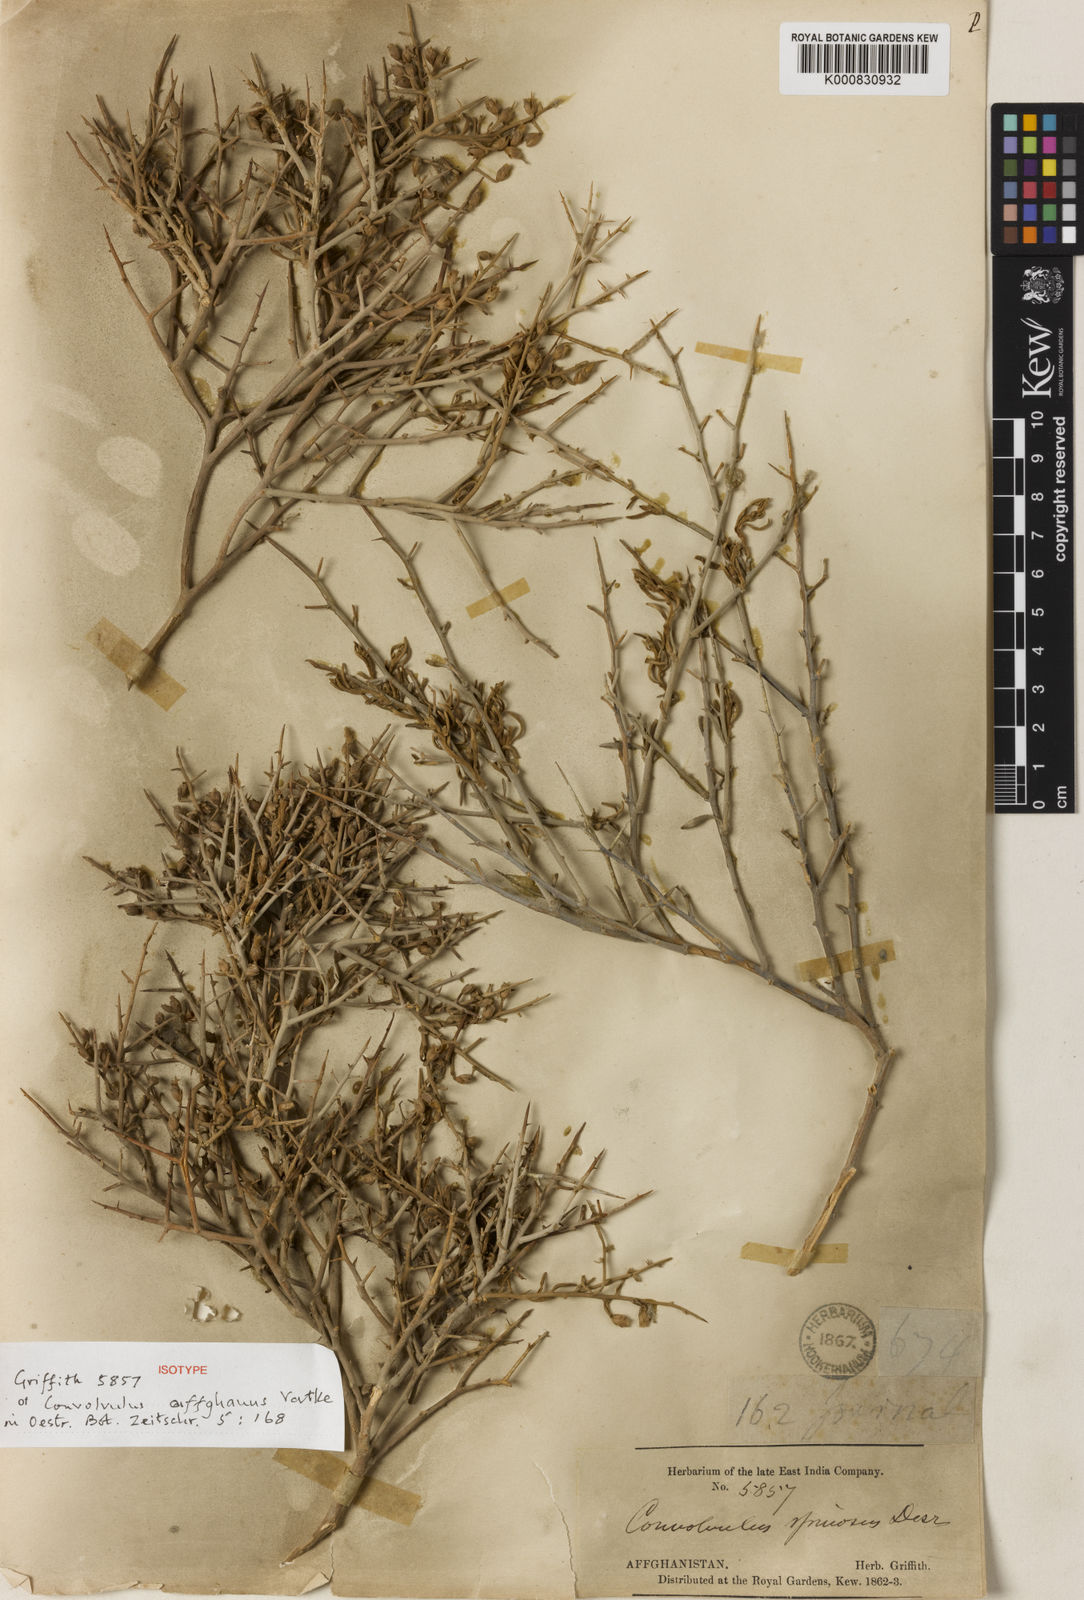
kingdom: Plantae
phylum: Tracheophyta
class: Magnoliopsida
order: Solanales
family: Convolvulaceae
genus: Convolvulus
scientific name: Convolvulus fruticosus
